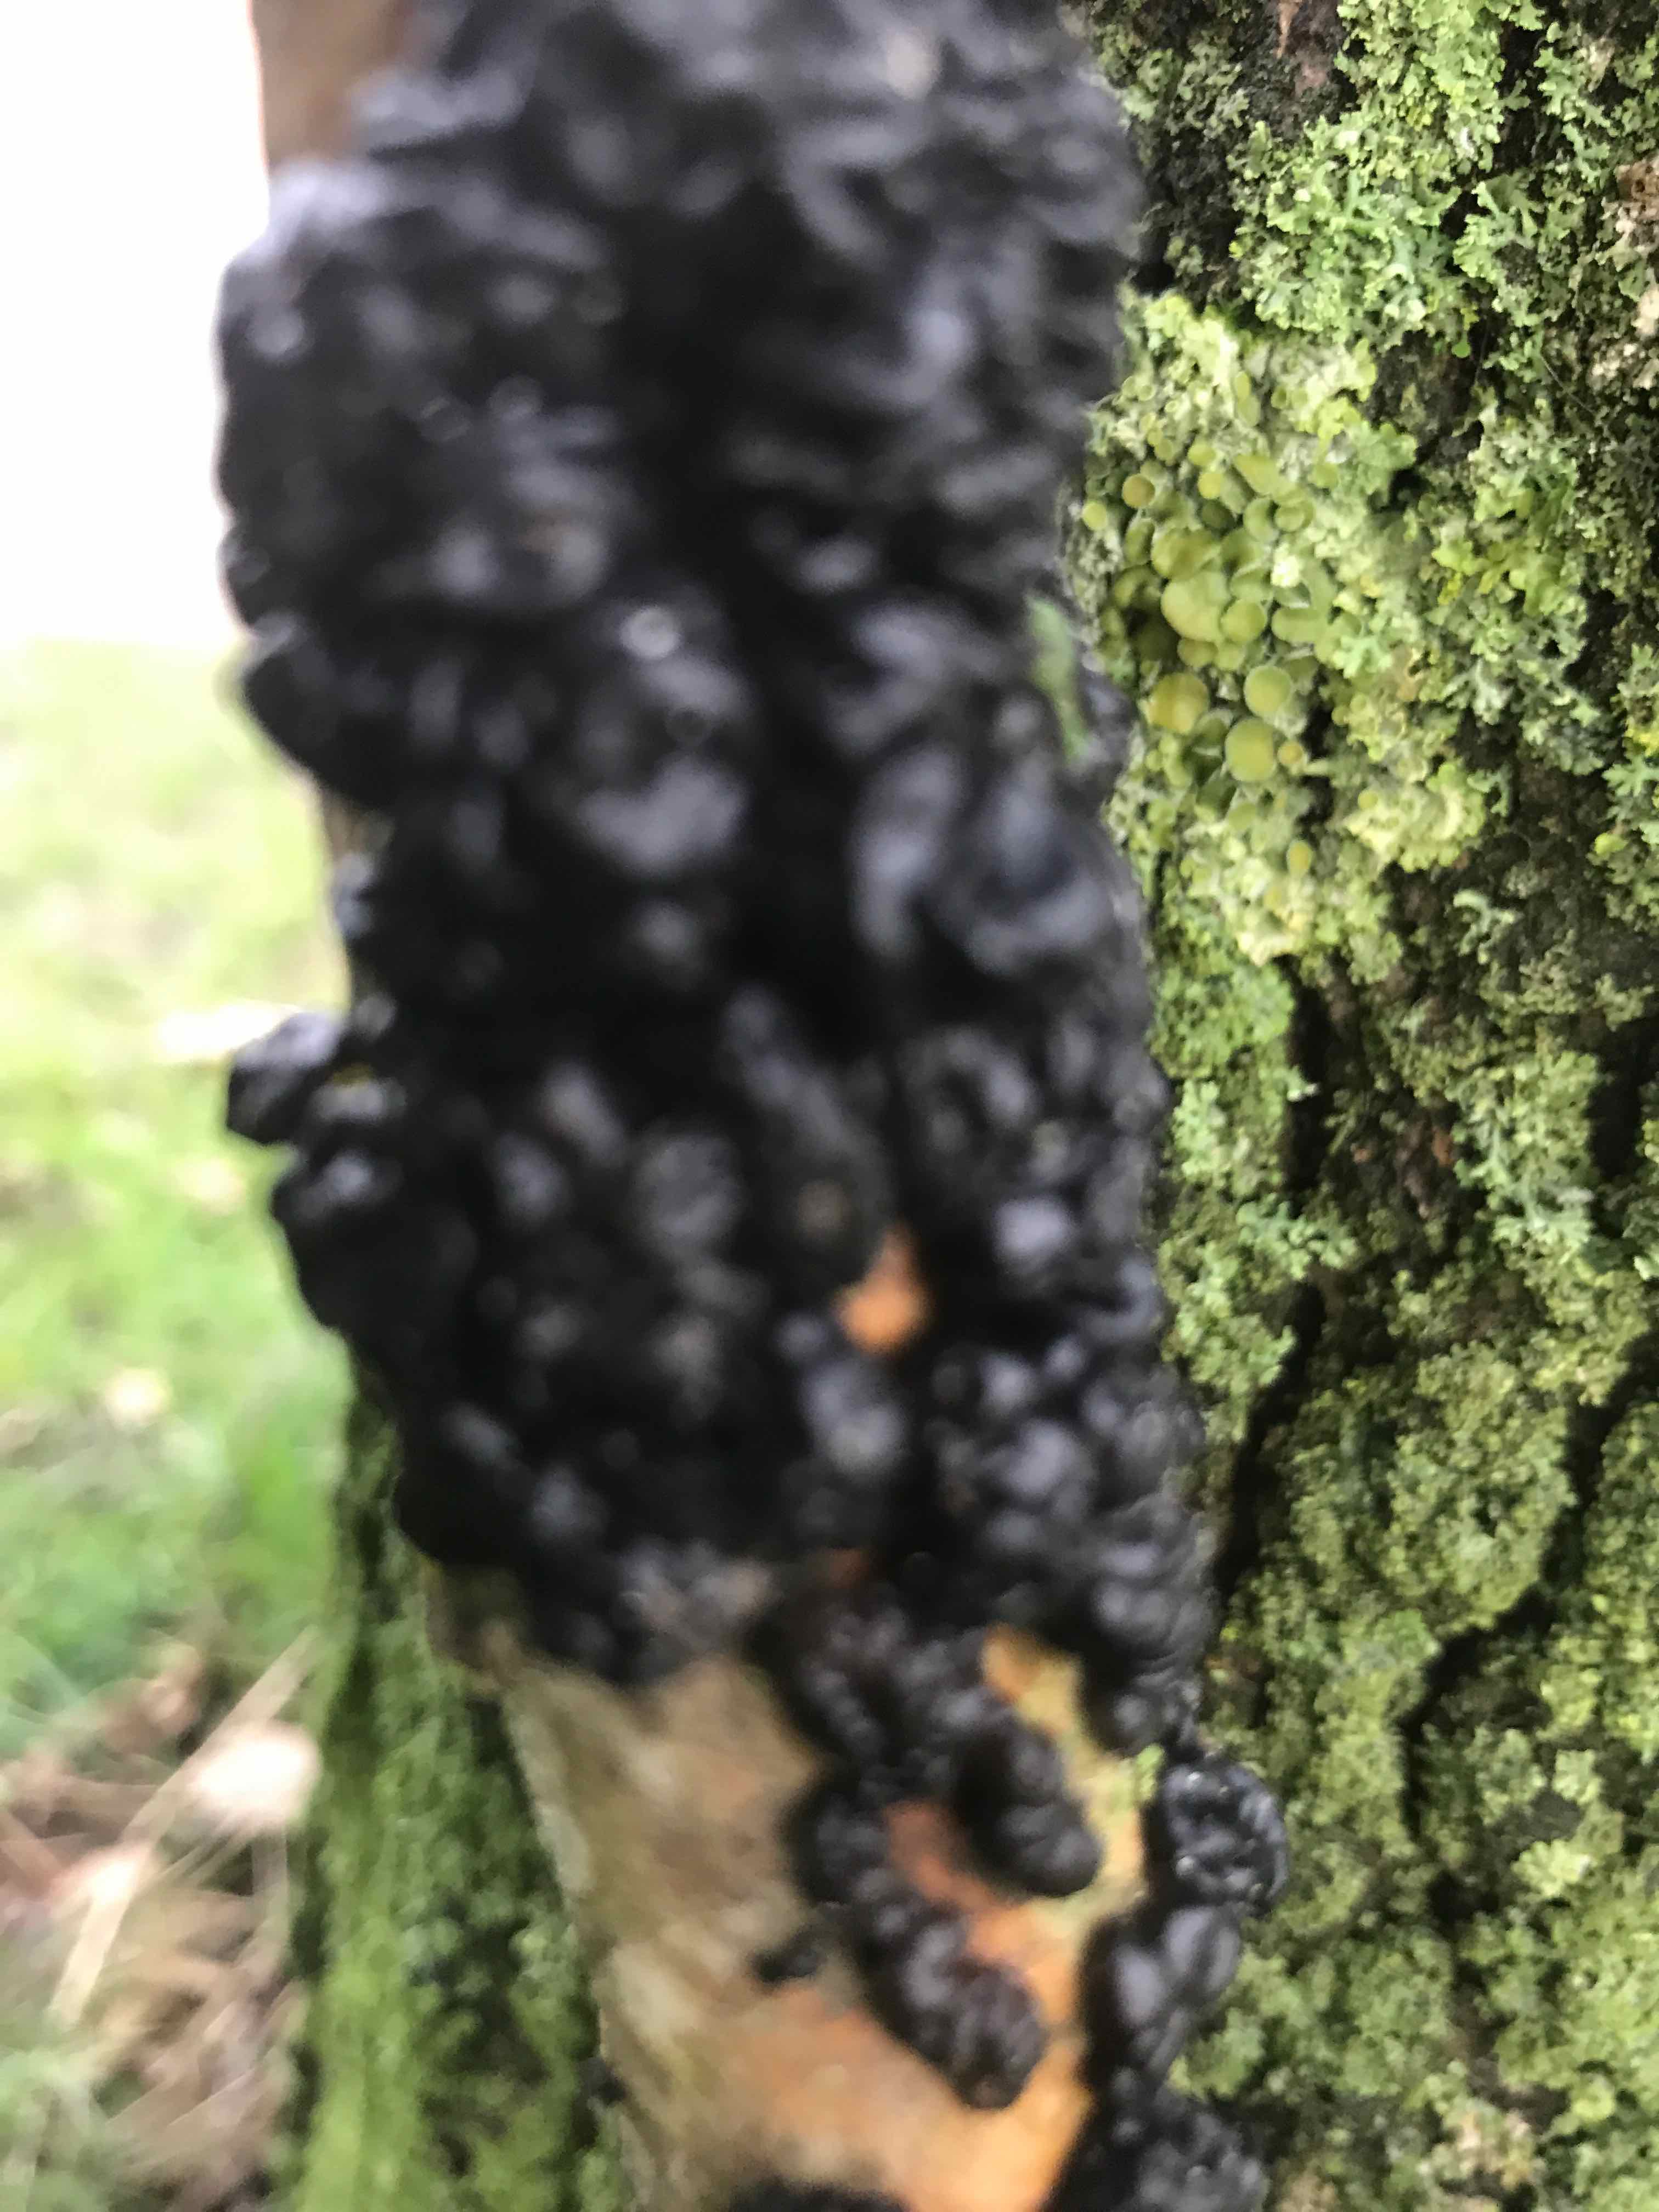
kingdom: Fungi
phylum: Basidiomycota
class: Agaricomycetes
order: Auriculariales
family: Auriculariaceae
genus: Exidia
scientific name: Exidia nigricans
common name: almindelig bævretop
